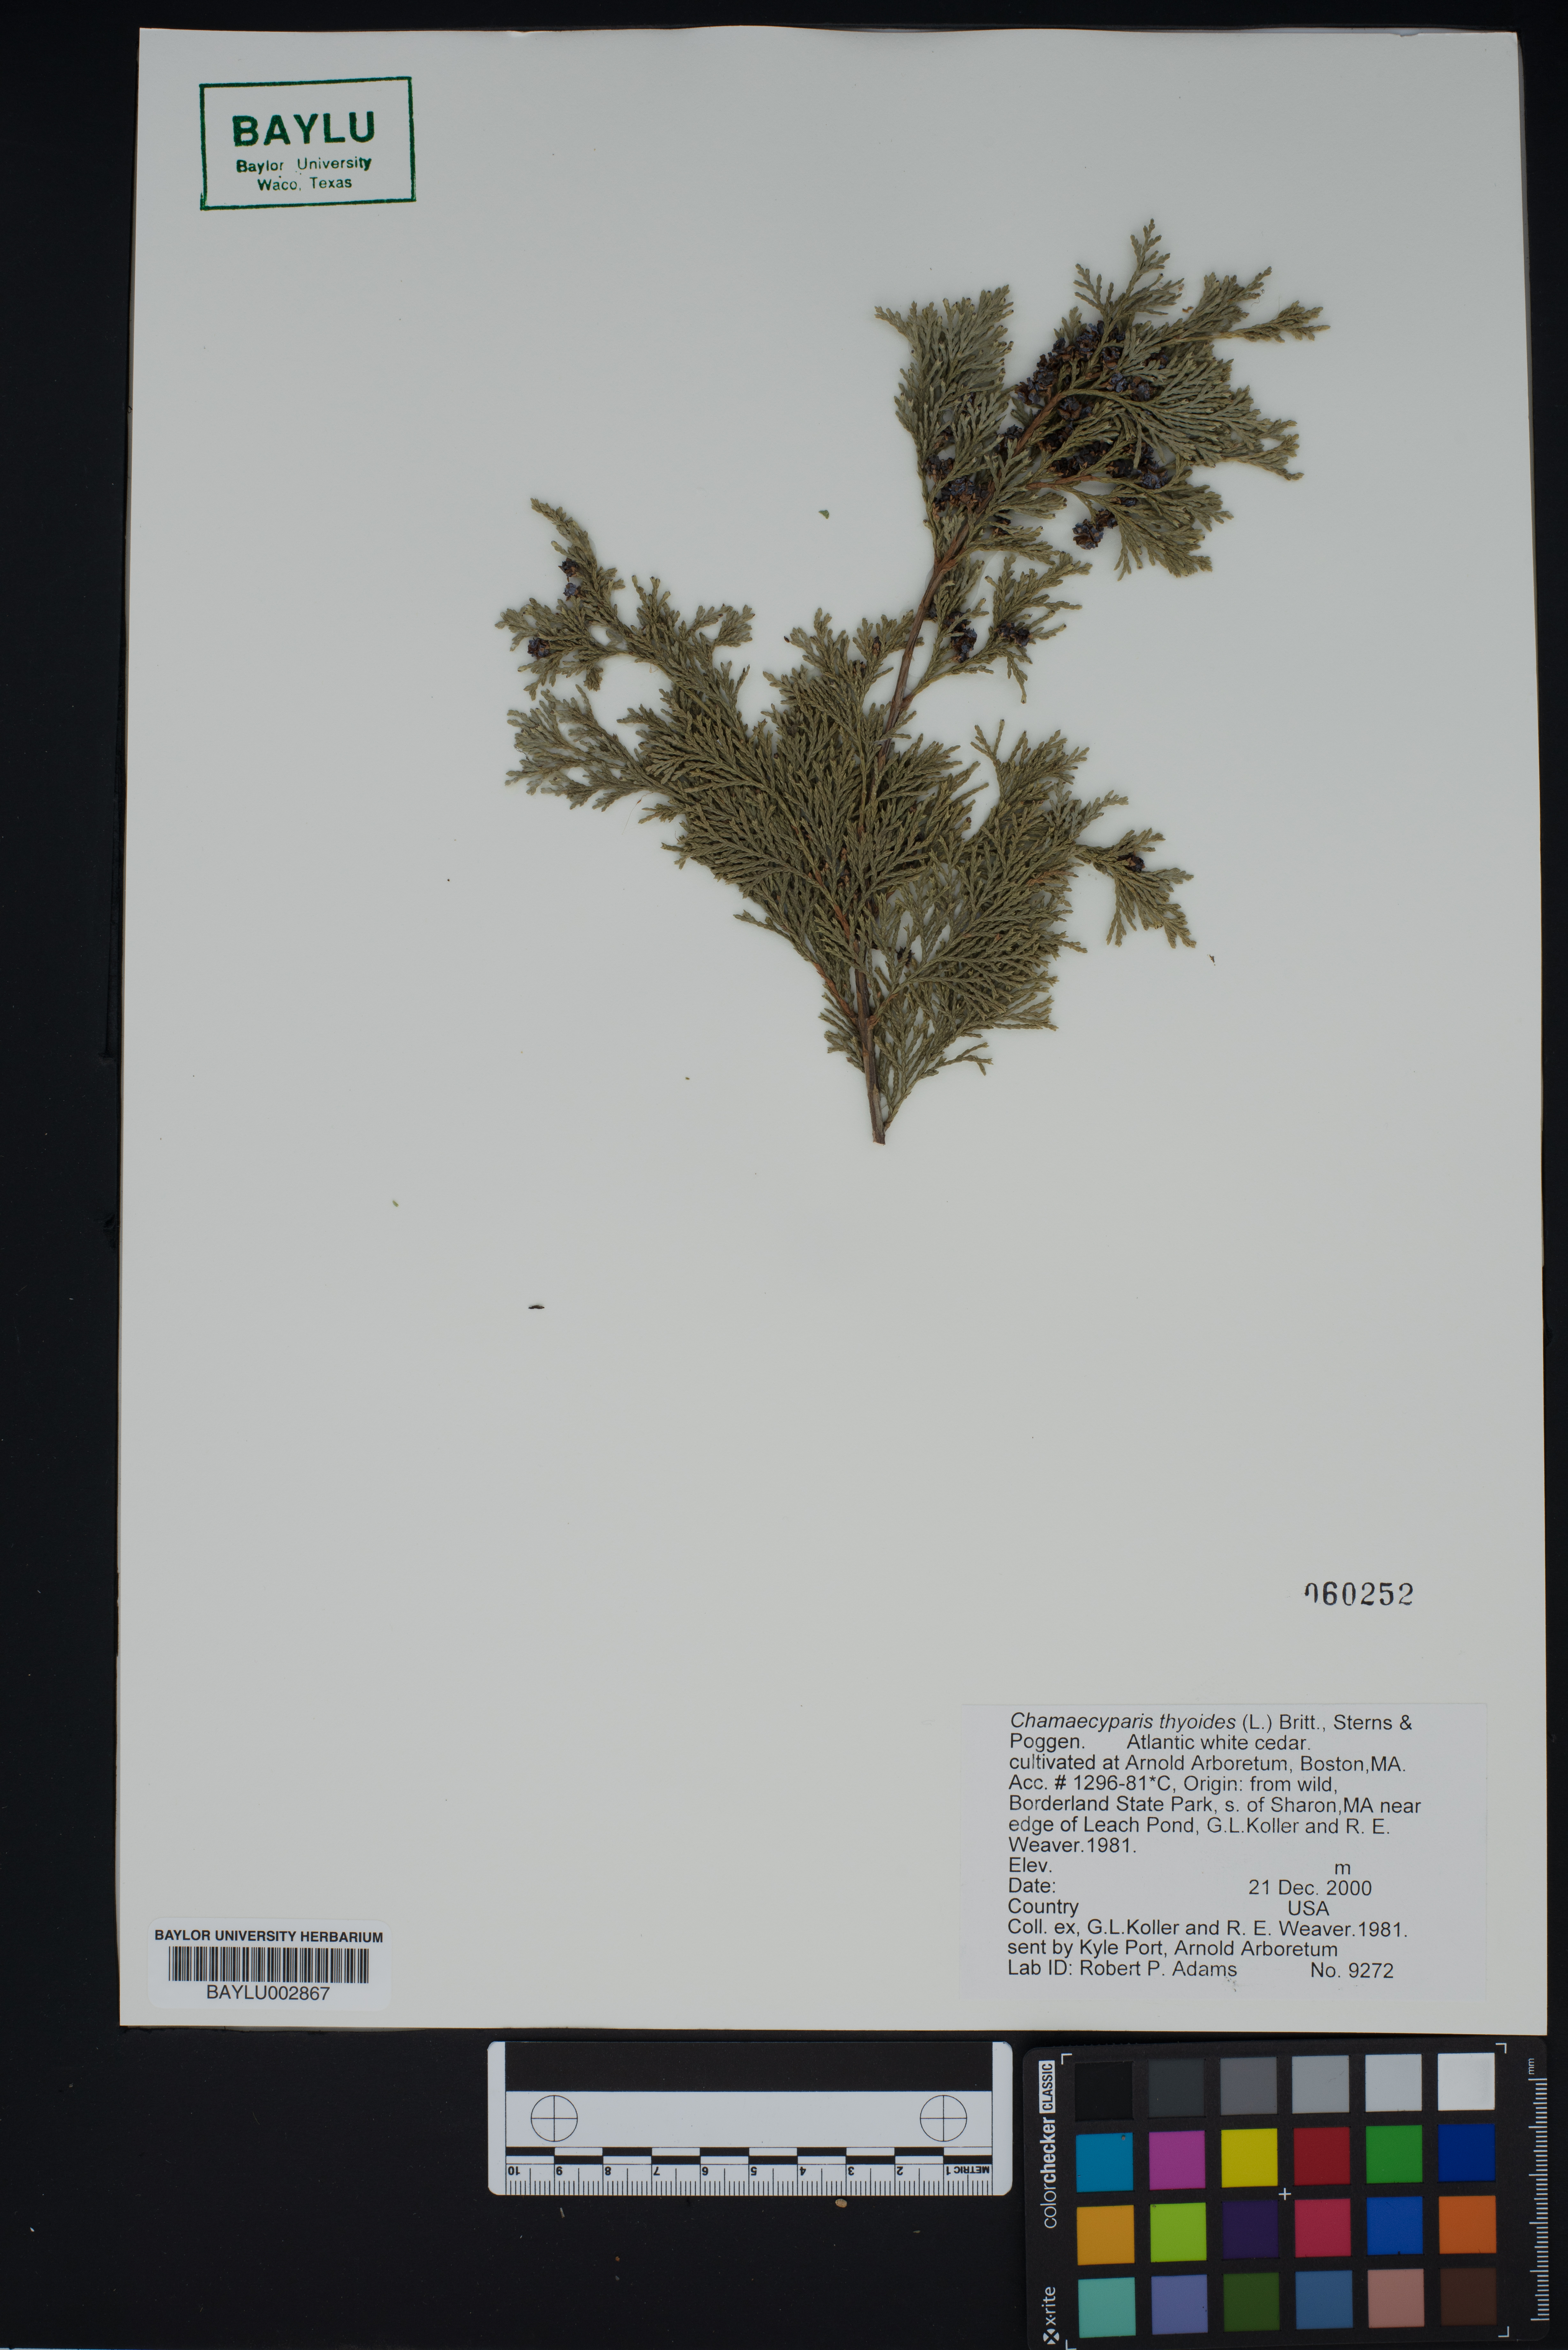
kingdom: Plantae
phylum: Tracheophyta
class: Pinopsida
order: Pinales
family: Cupressaceae
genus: Chamaecyparis
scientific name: Chamaecyparis thyoides
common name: Atlantic white cedar
